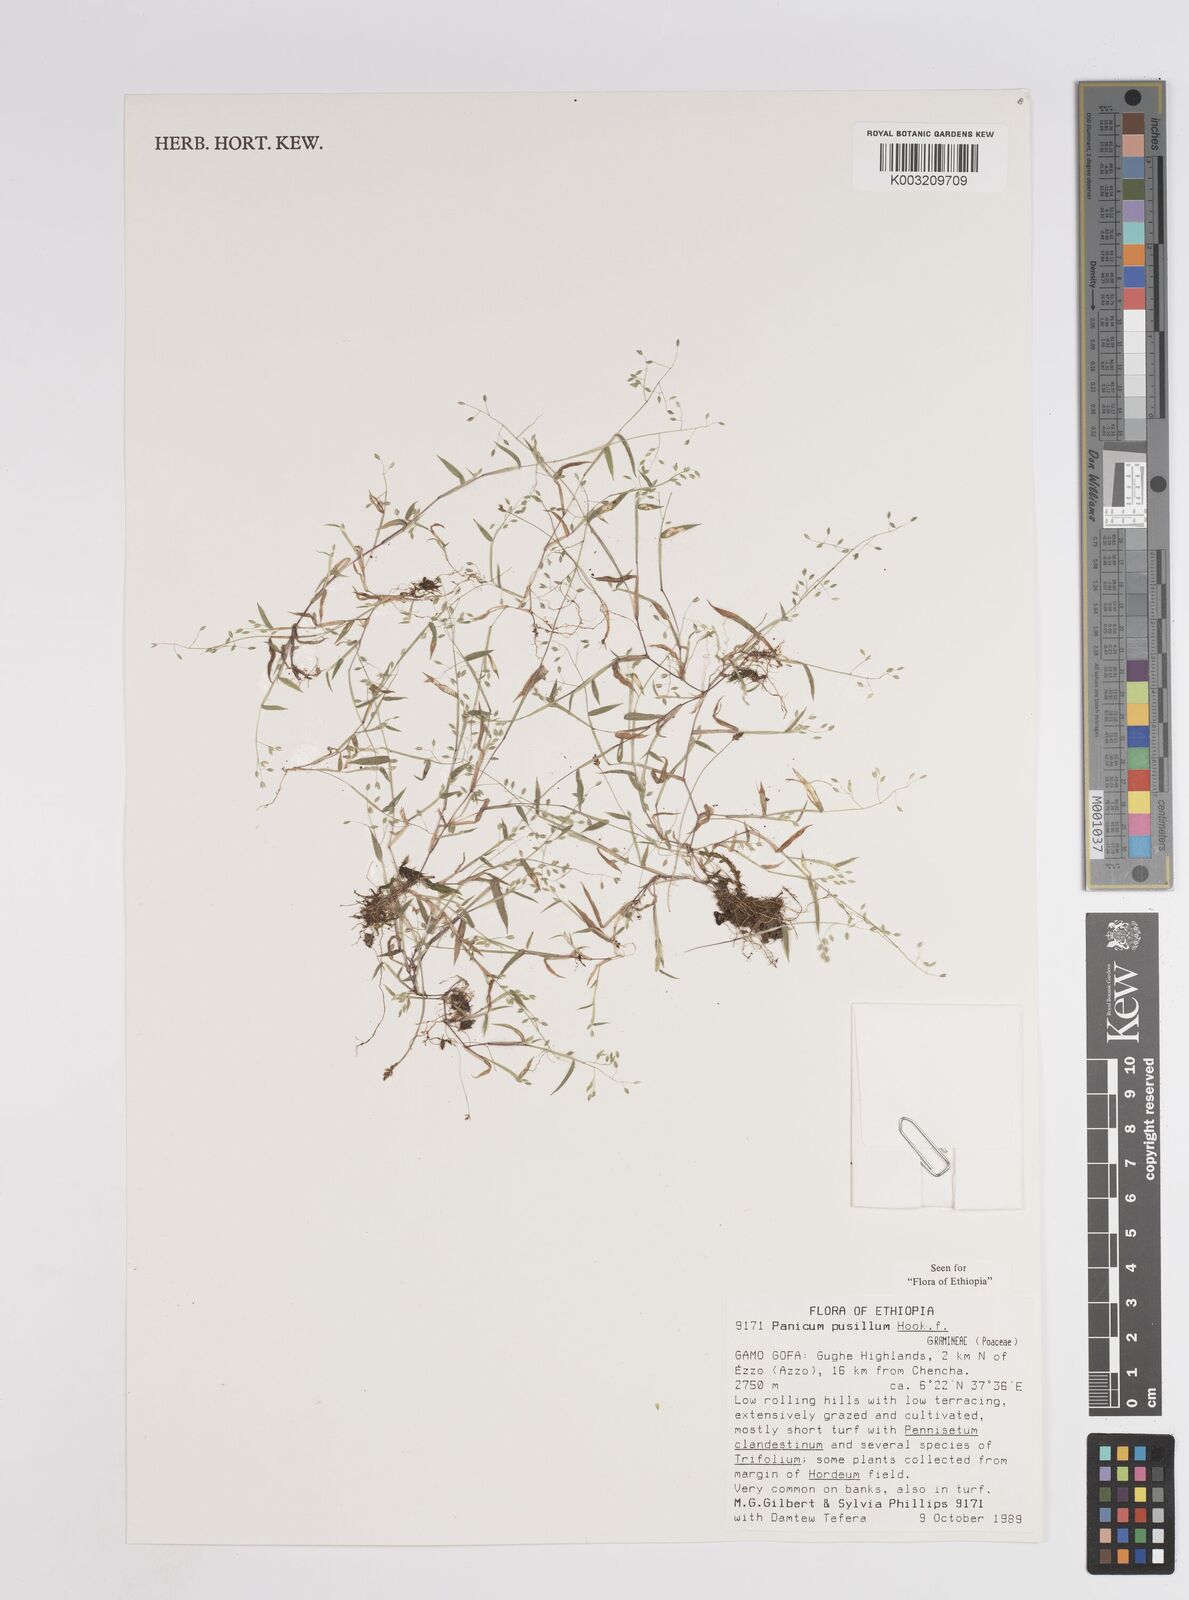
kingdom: Plantae
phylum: Tracheophyta
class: Liliopsida
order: Poales
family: Poaceae
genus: Panicum
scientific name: Panicum pusillum
